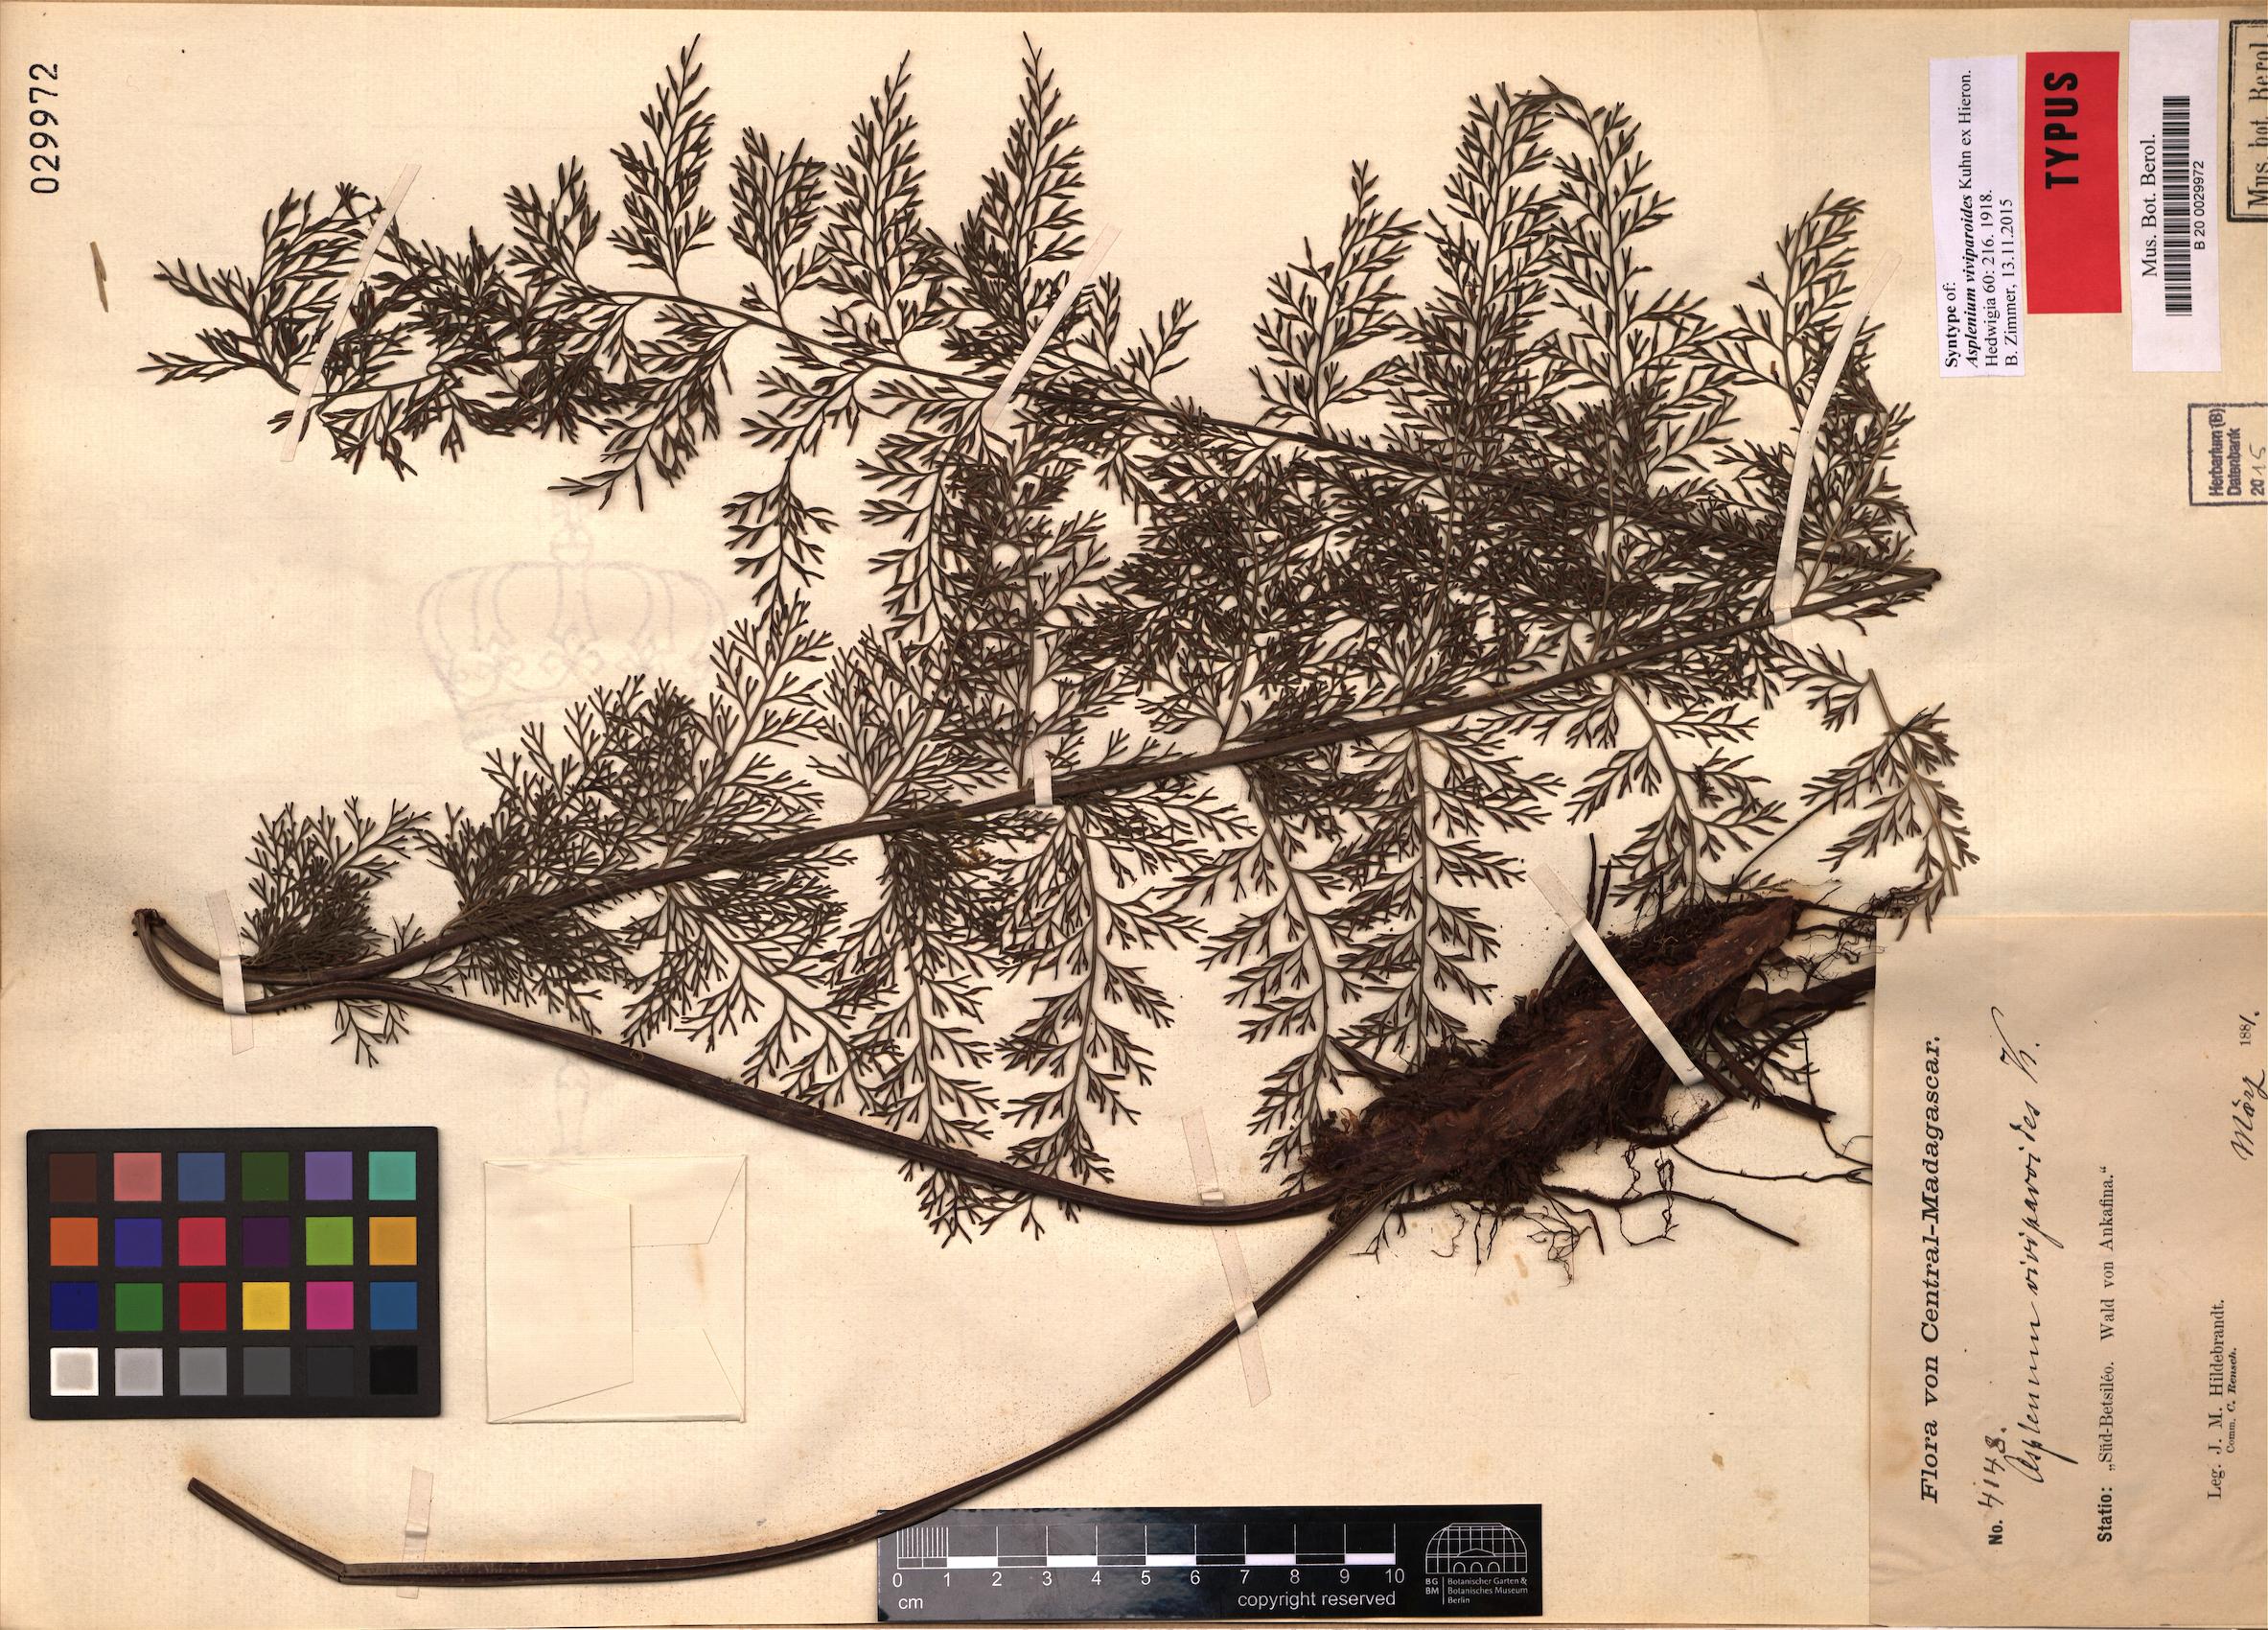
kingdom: Plantae
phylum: Tracheophyta
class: Polypodiopsida
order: Polypodiales
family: Aspleniaceae
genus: Asplenium
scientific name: Asplenium viviparioides
